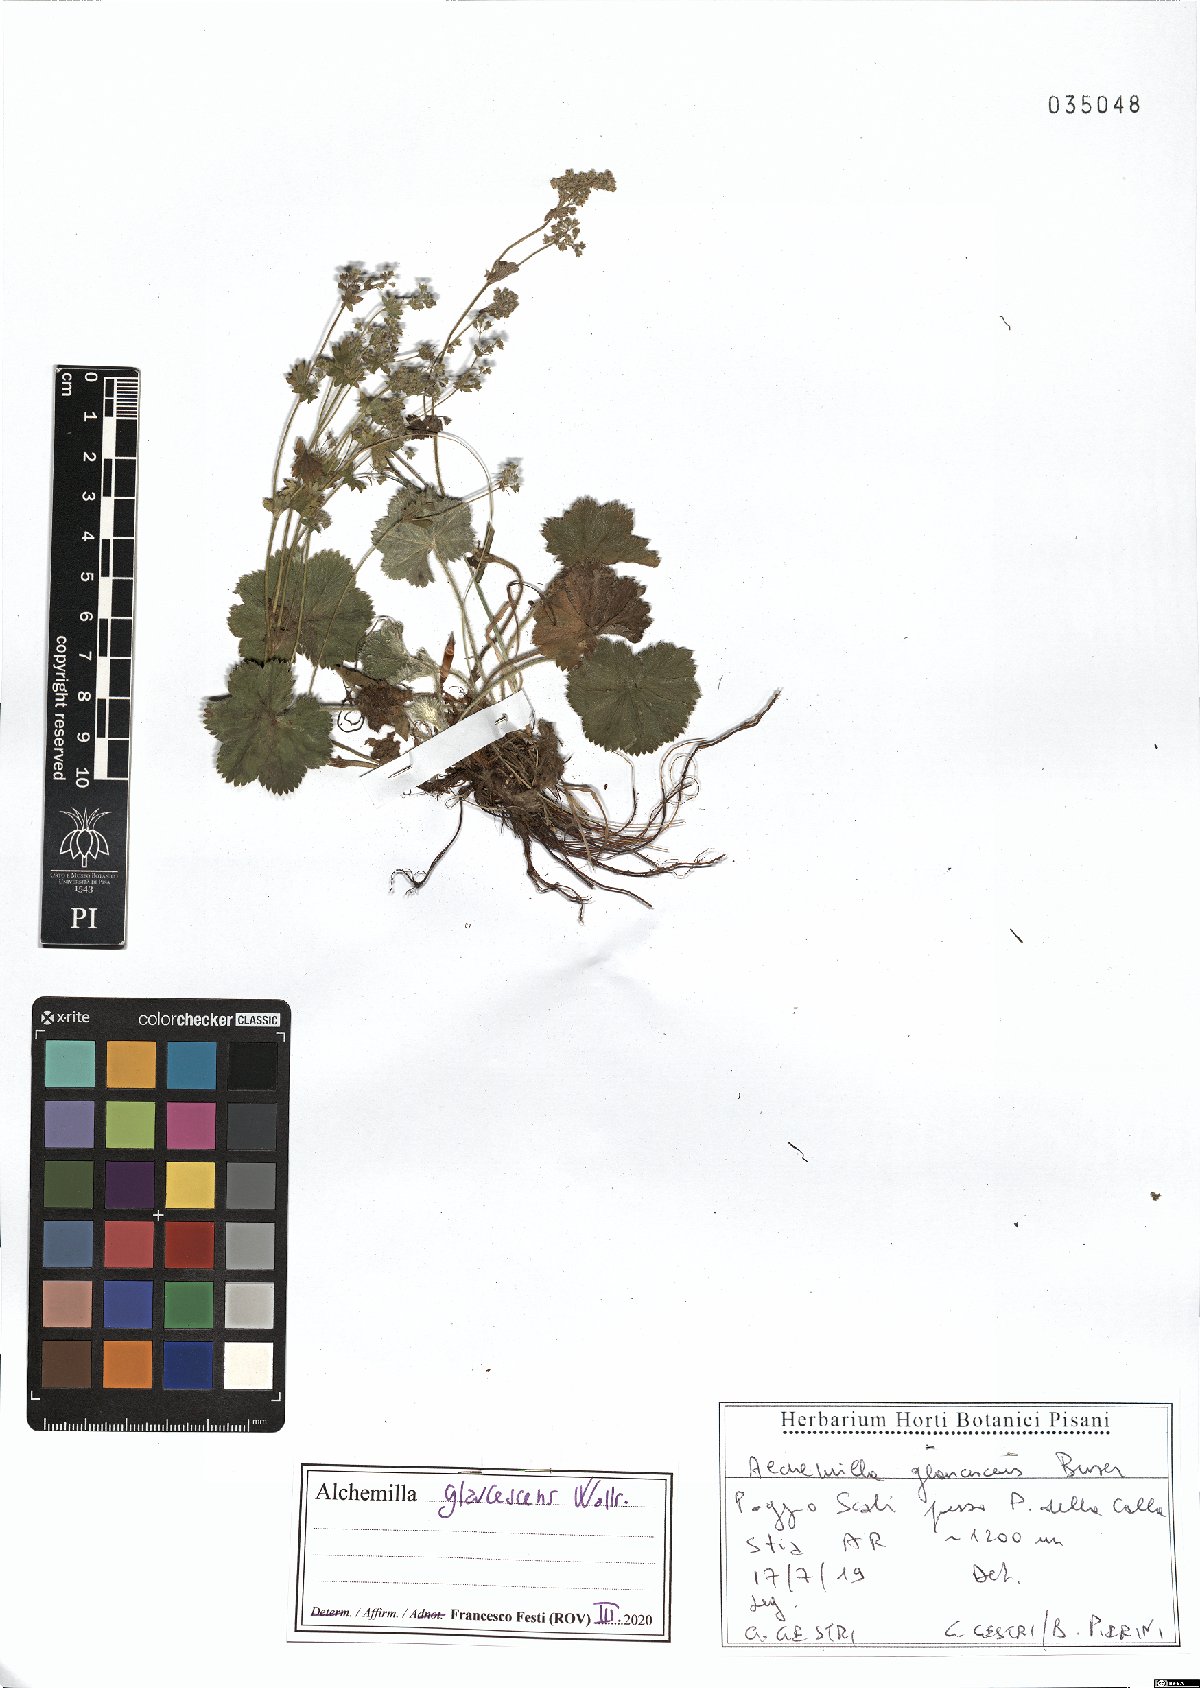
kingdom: Plantae
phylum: Tracheophyta
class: Magnoliopsida
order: Rosales
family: Rosaceae
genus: Alchemilla
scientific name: Alchemilla glaucescens
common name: Silky lady's mantle
